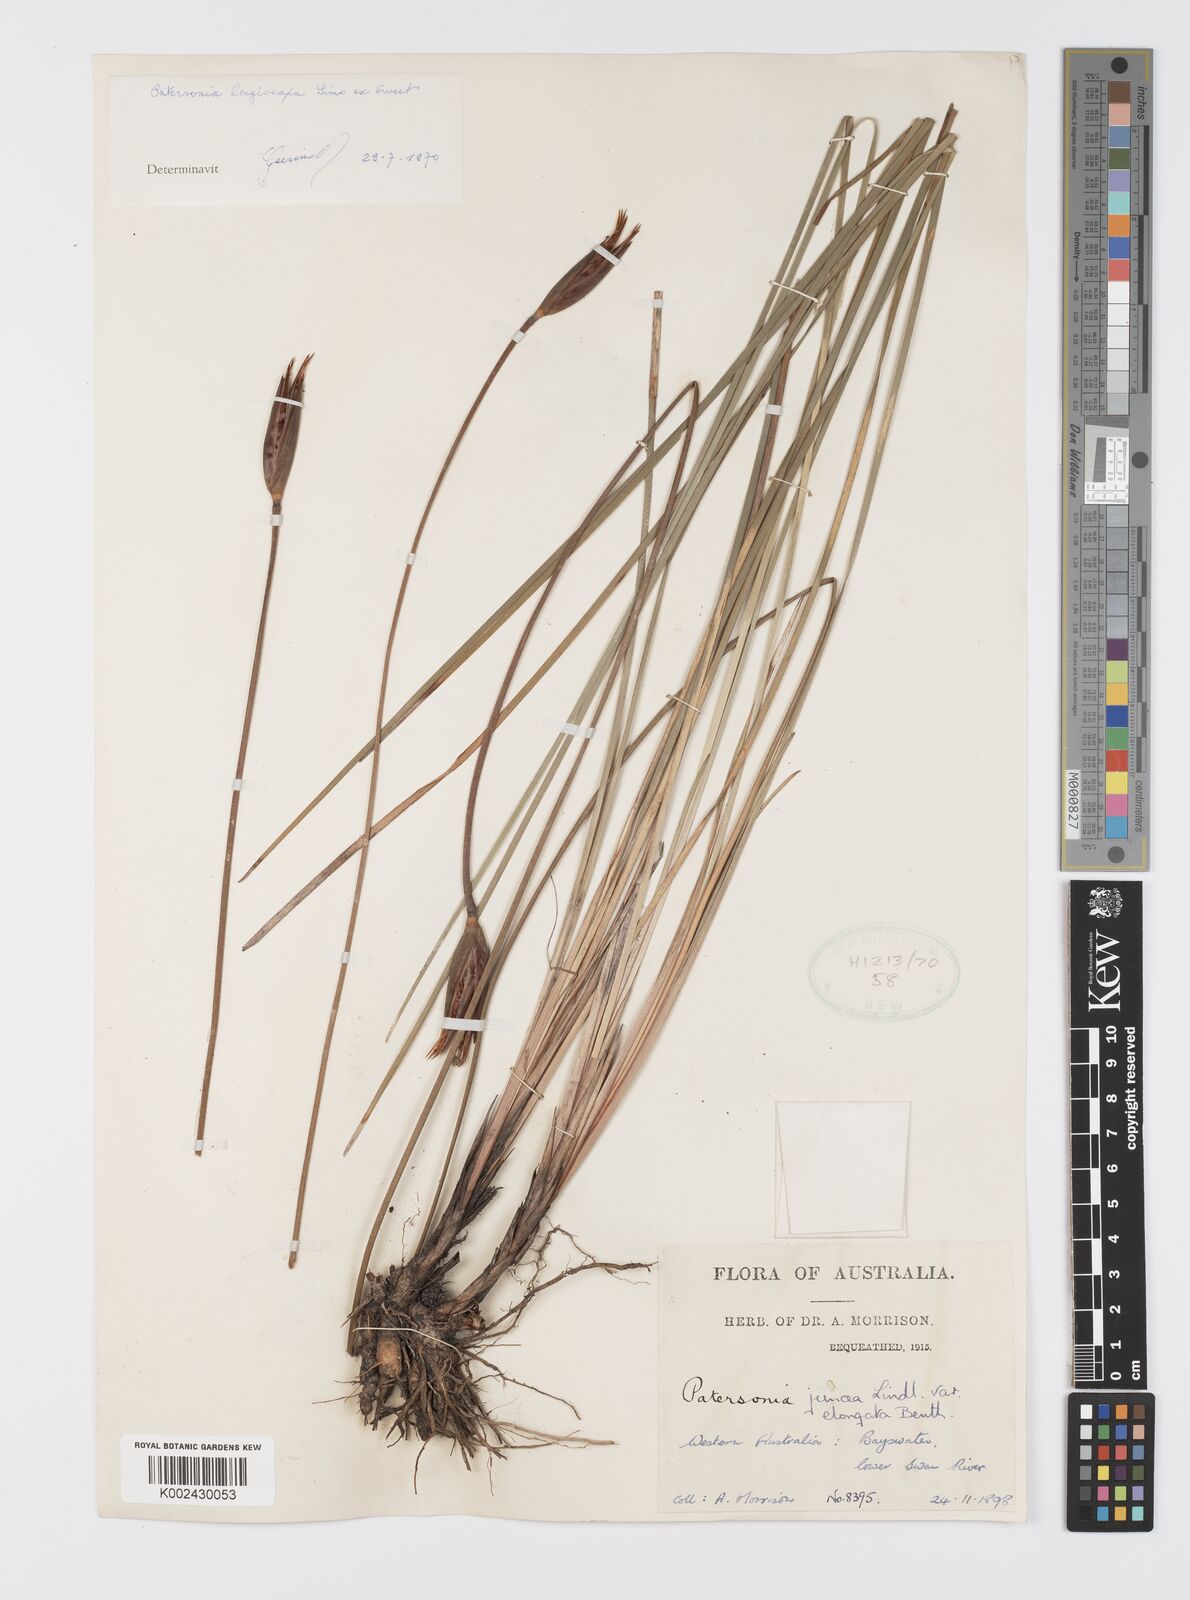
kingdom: Plantae
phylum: Tracheophyta
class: Liliopsida
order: Asparagales
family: Iridaceae
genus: Patersonia
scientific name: Patersonia occidentalis
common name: Long purple-flag
